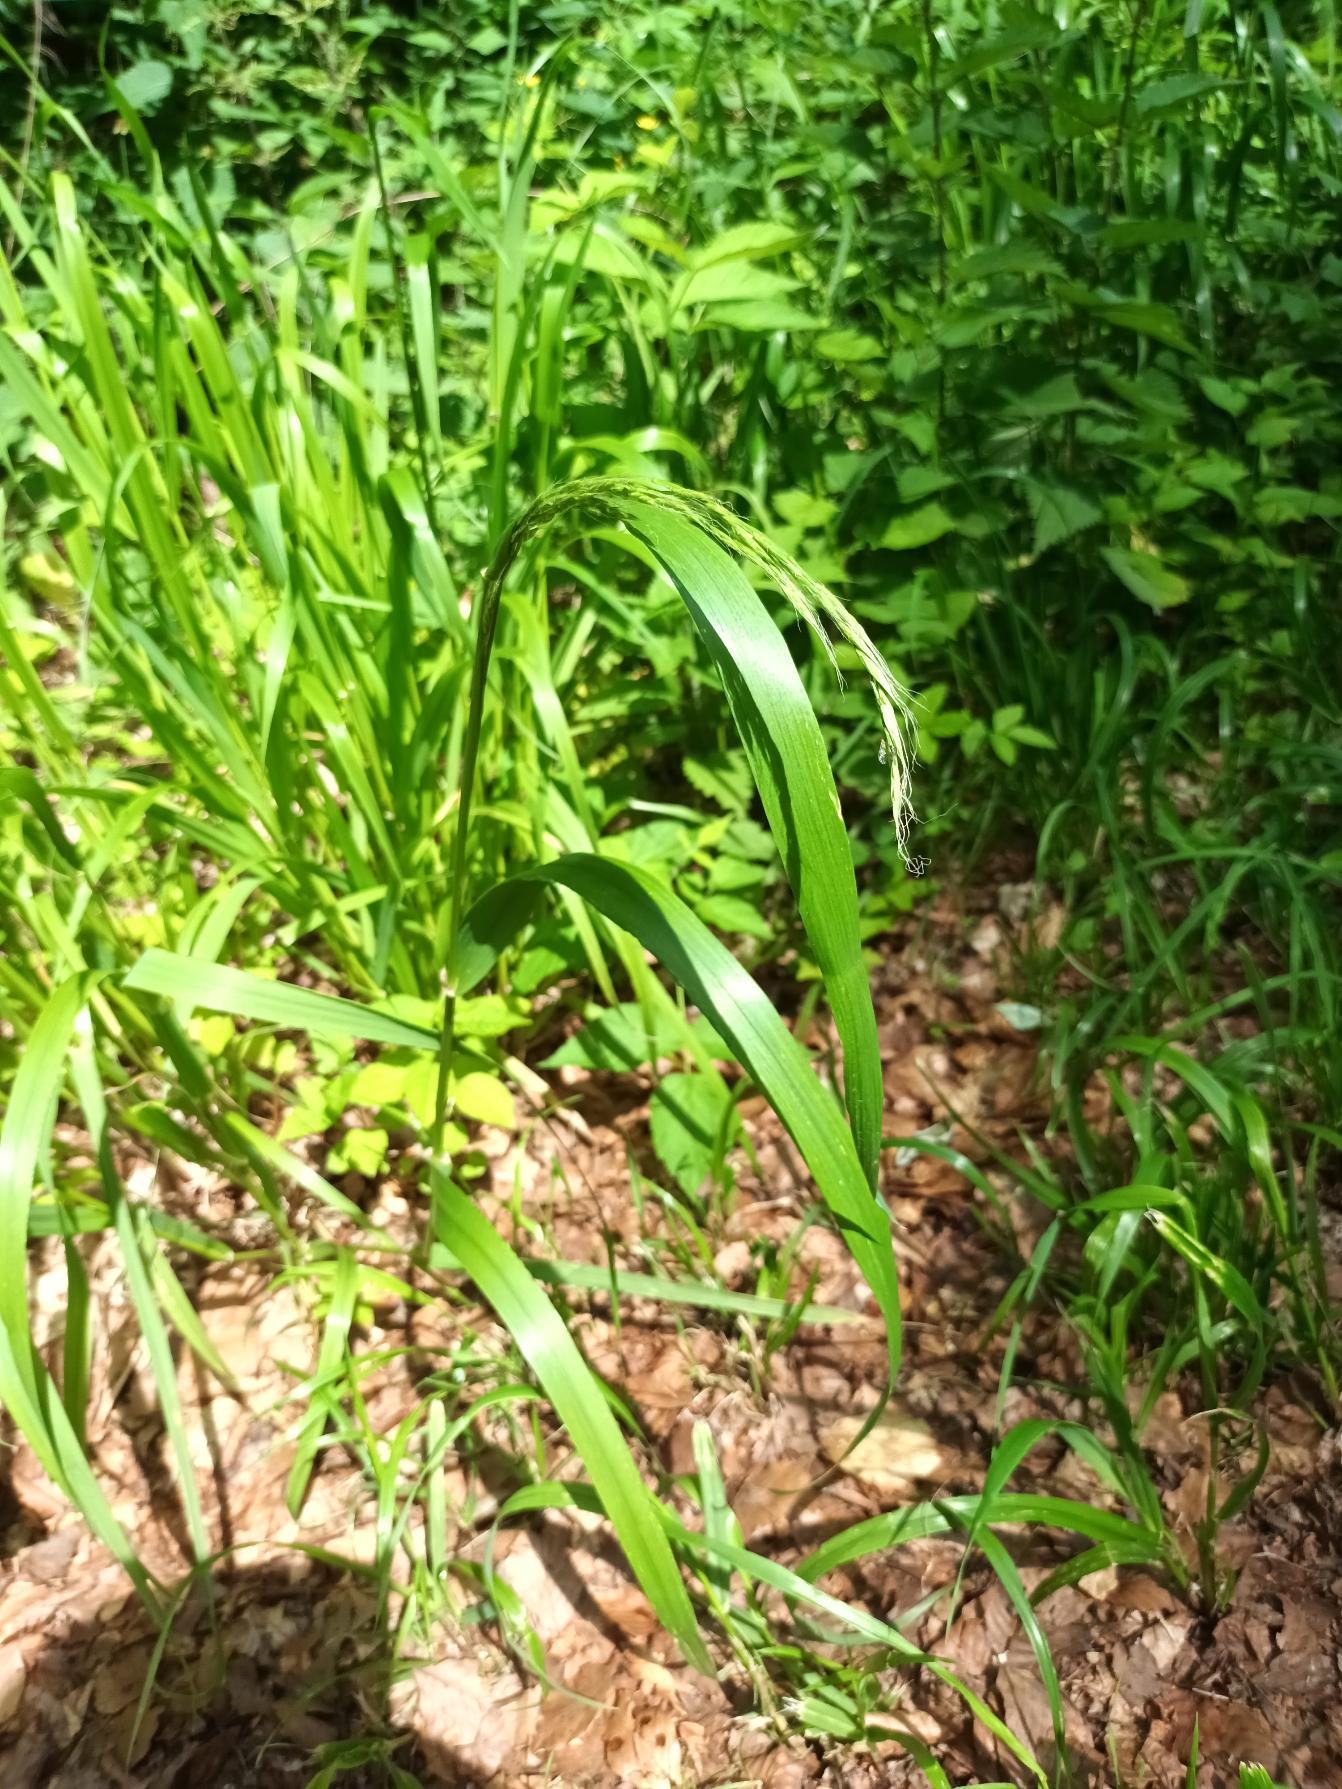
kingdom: Plantae
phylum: Tracheophyta
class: Liliopsida
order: Poales
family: Poaceae
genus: Lolium
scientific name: Lolium giganteum
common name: Kæmpe-svingel
